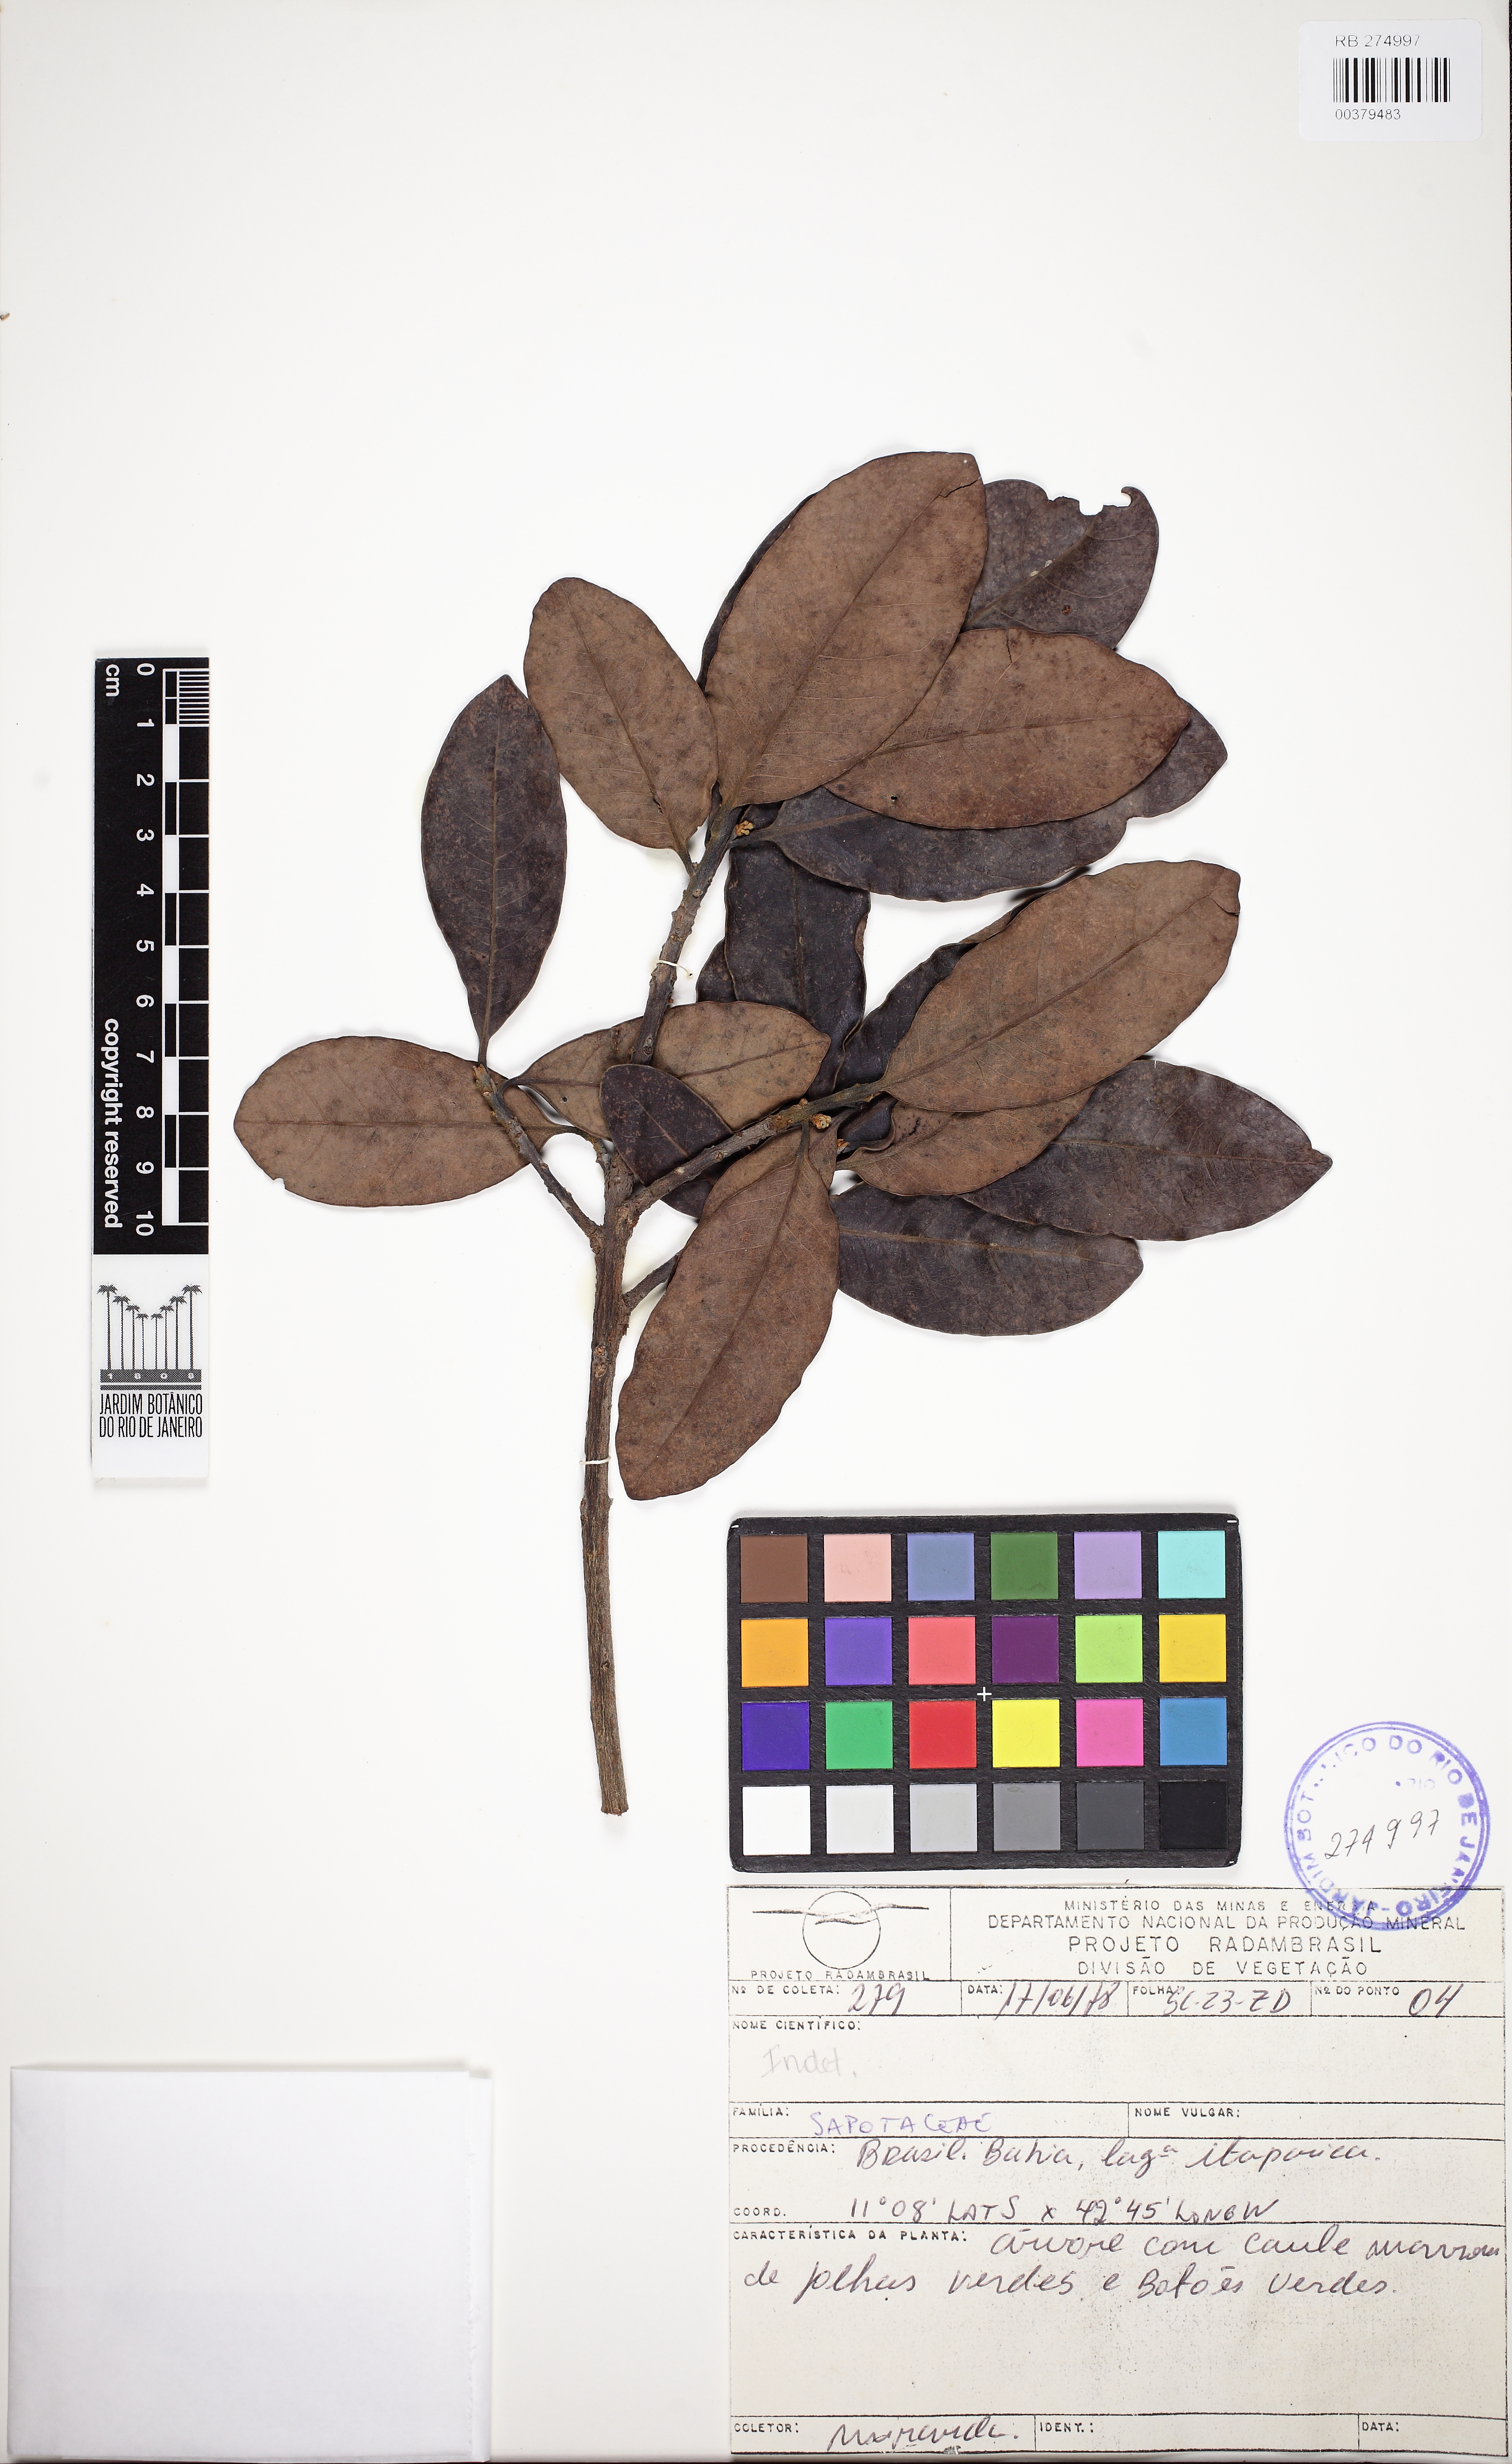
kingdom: Plantae
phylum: Tracheophyta
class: Magnoliopsida
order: Ericales
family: Sapotaceae
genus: Pouteria
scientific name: Pouteria ramiflora
